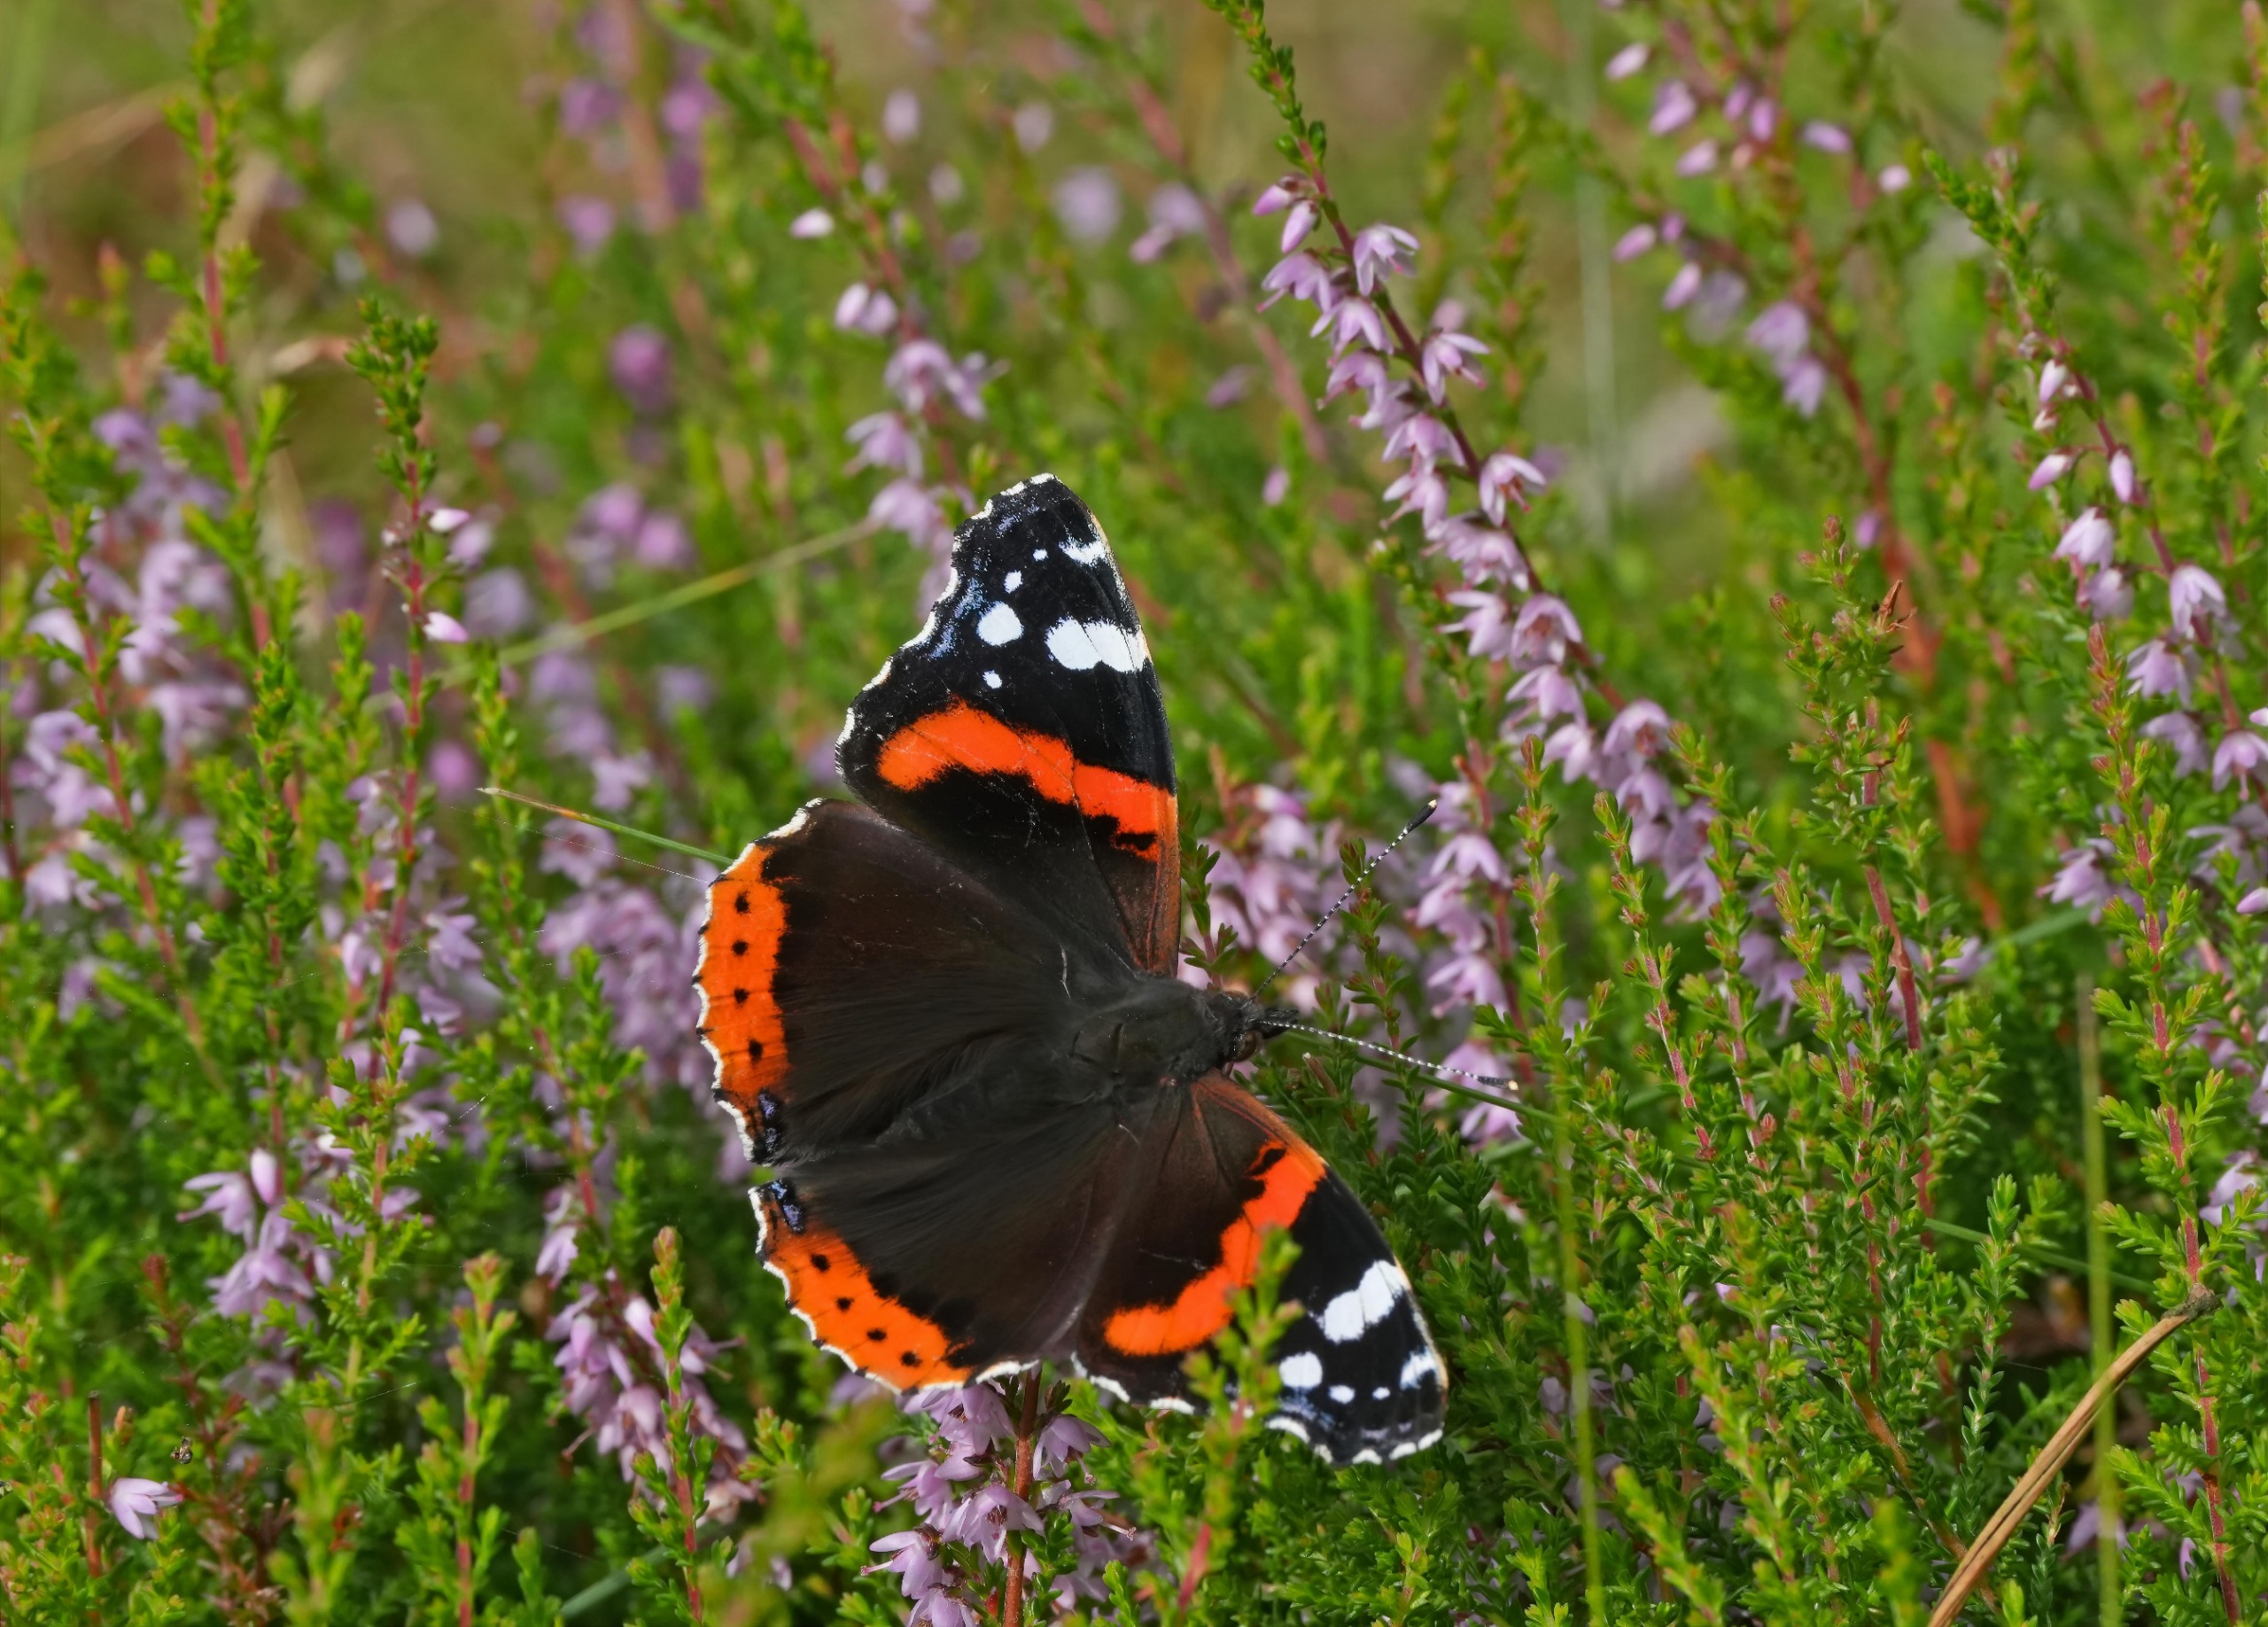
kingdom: Animalia
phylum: Arthropoda
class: Insecta
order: Lepidoptera
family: Nymphalidae
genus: Vanessa
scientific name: Vanessa atalanta
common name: Admiral
